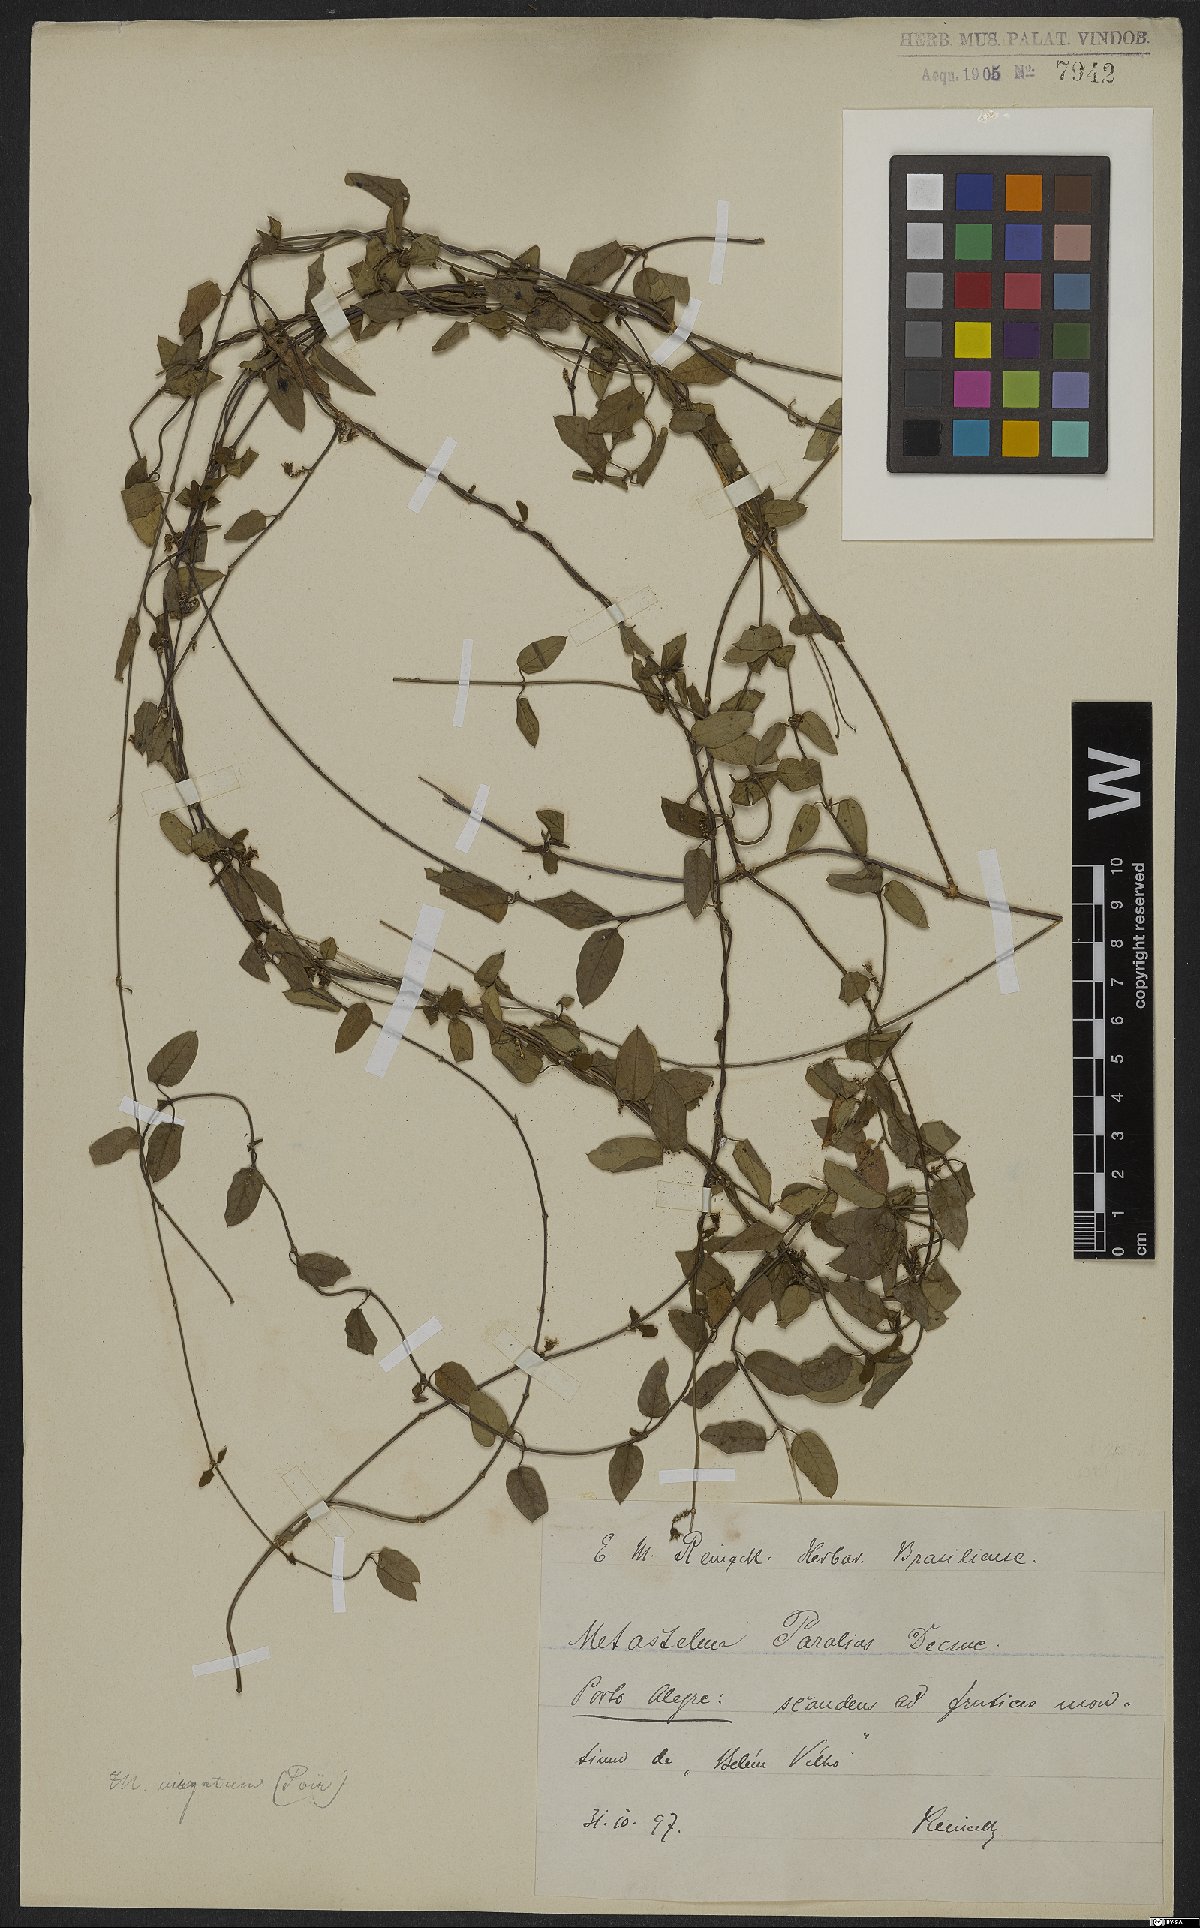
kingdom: Plantae
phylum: Tracheophyta
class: Magnoliopsida
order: Gentianales
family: Apocynaceae
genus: Metastelma
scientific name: Metastelma parviflorum
